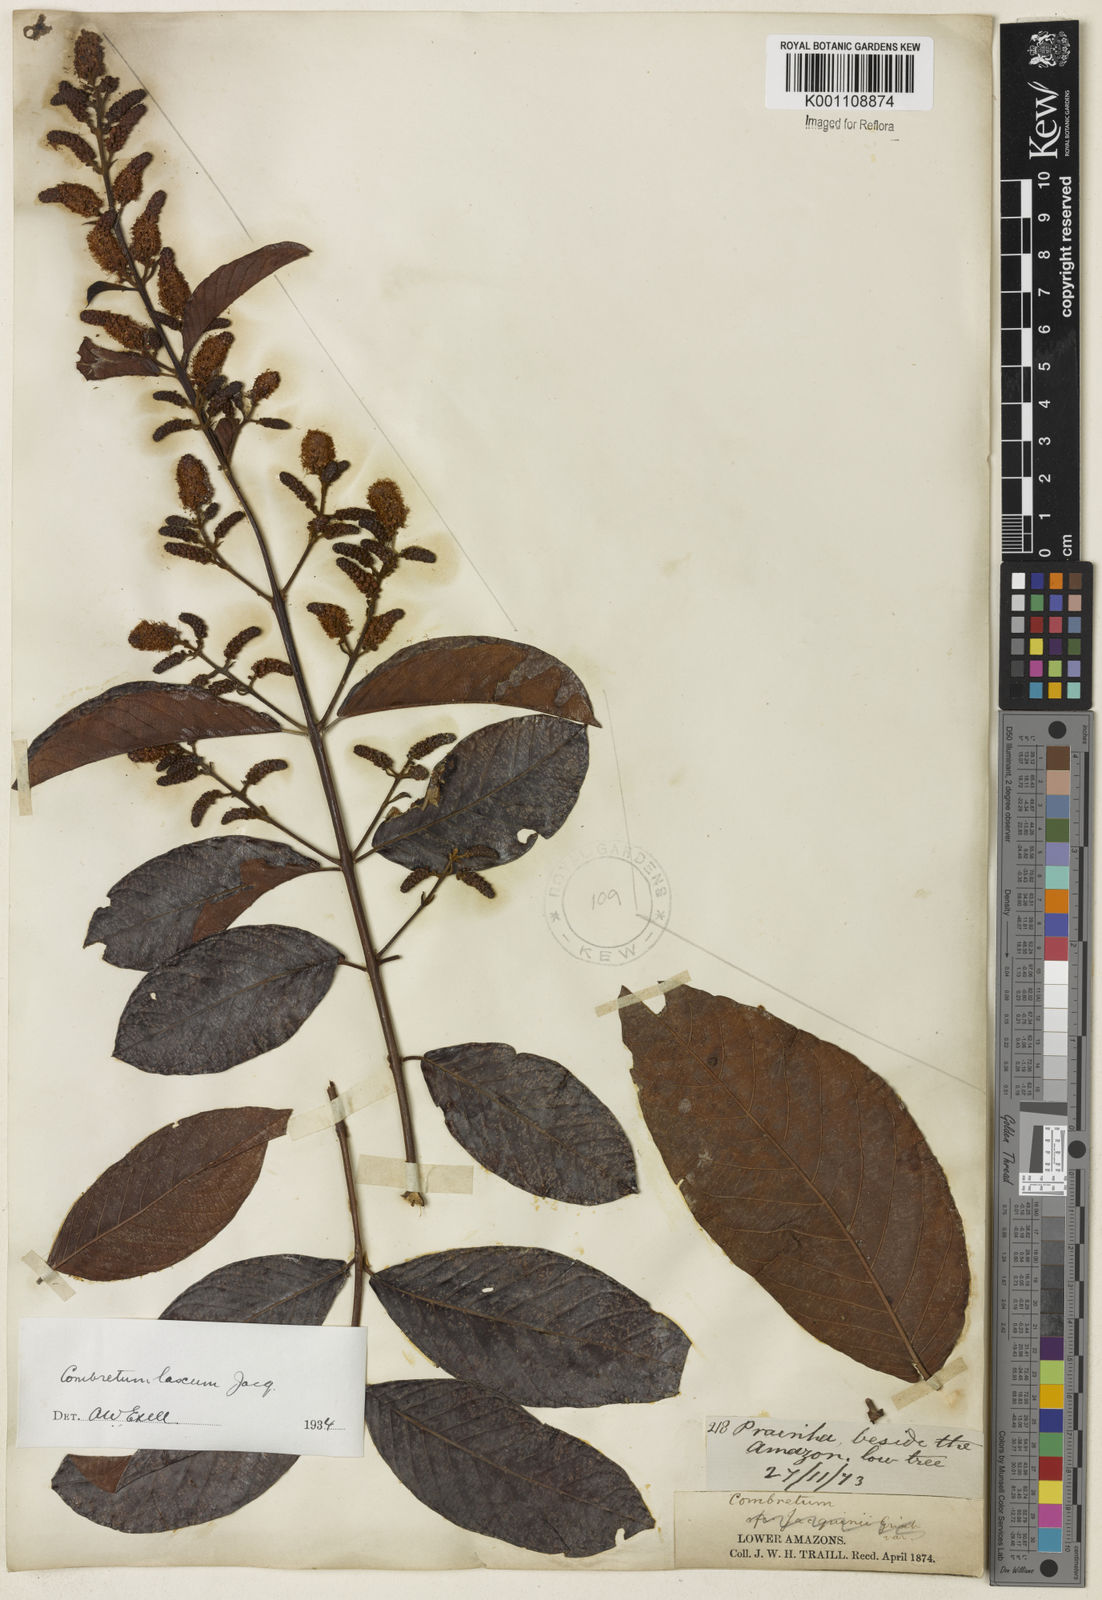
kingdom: Plantae
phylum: Tracheophyta
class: Magnoliopsida
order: Myrtales
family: Combretaceae
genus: Combretum
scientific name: Combretum laxum
